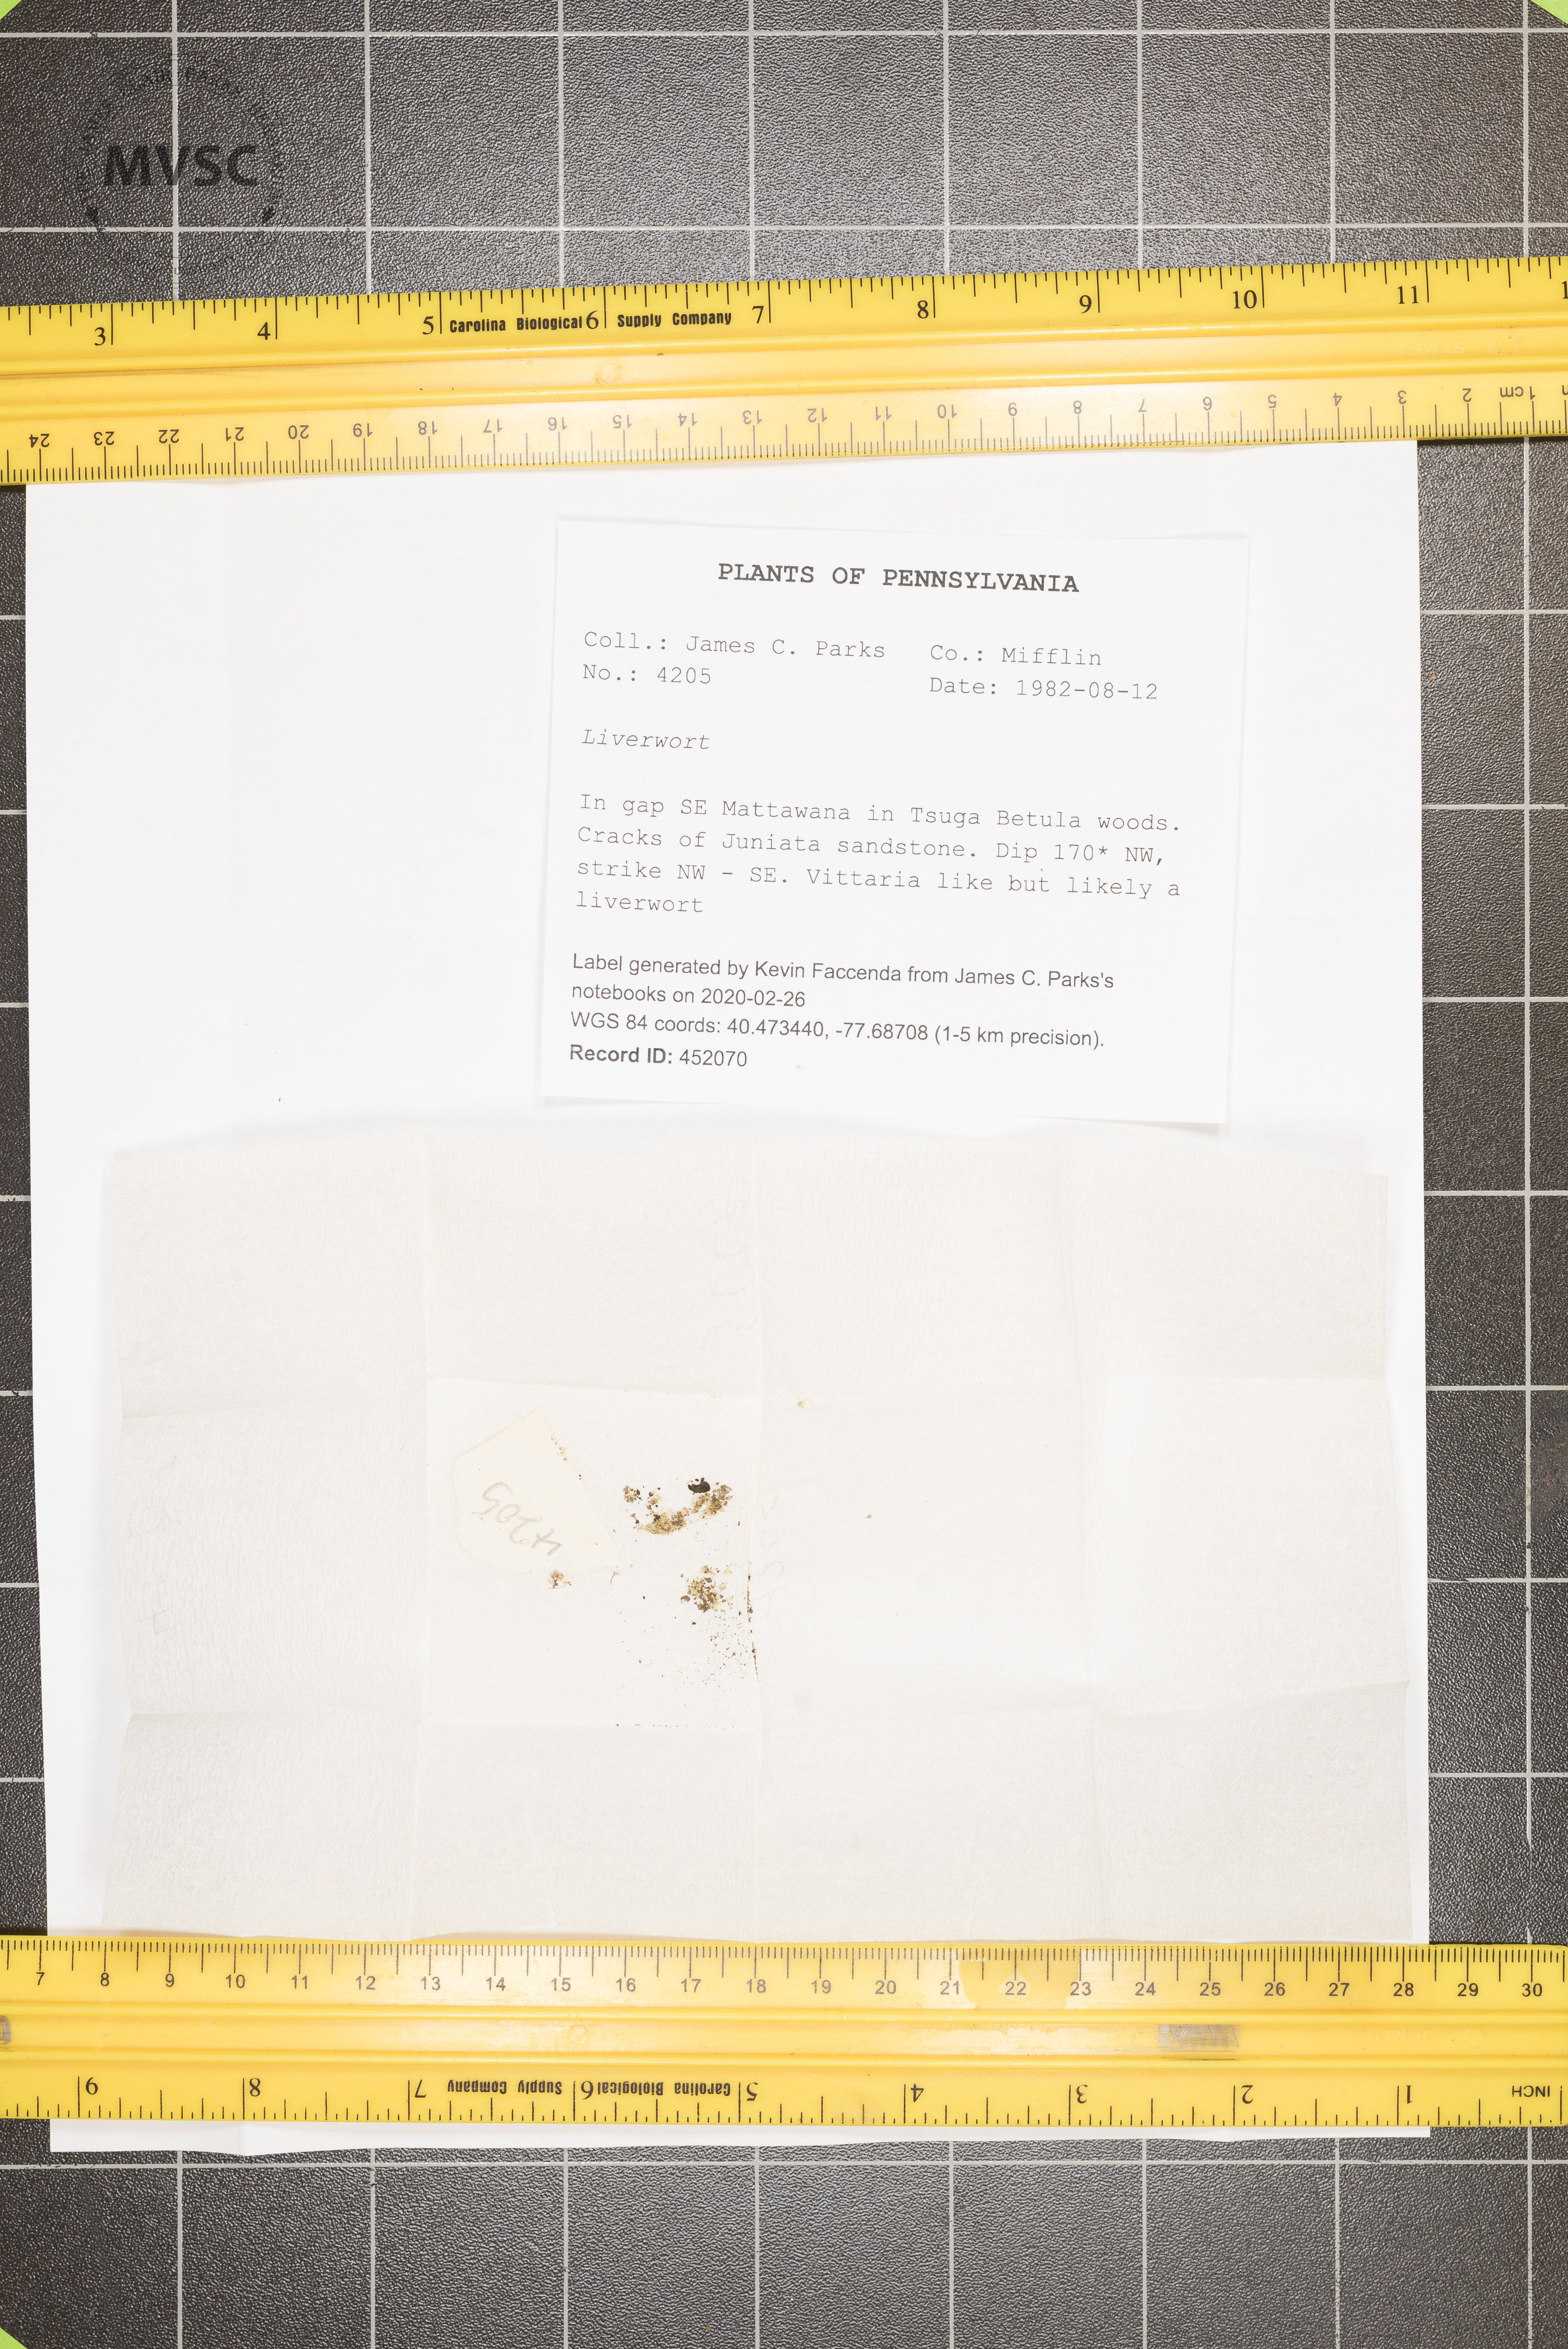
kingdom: Plantae
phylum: Marchantiophyta
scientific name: Marchantiophyta
